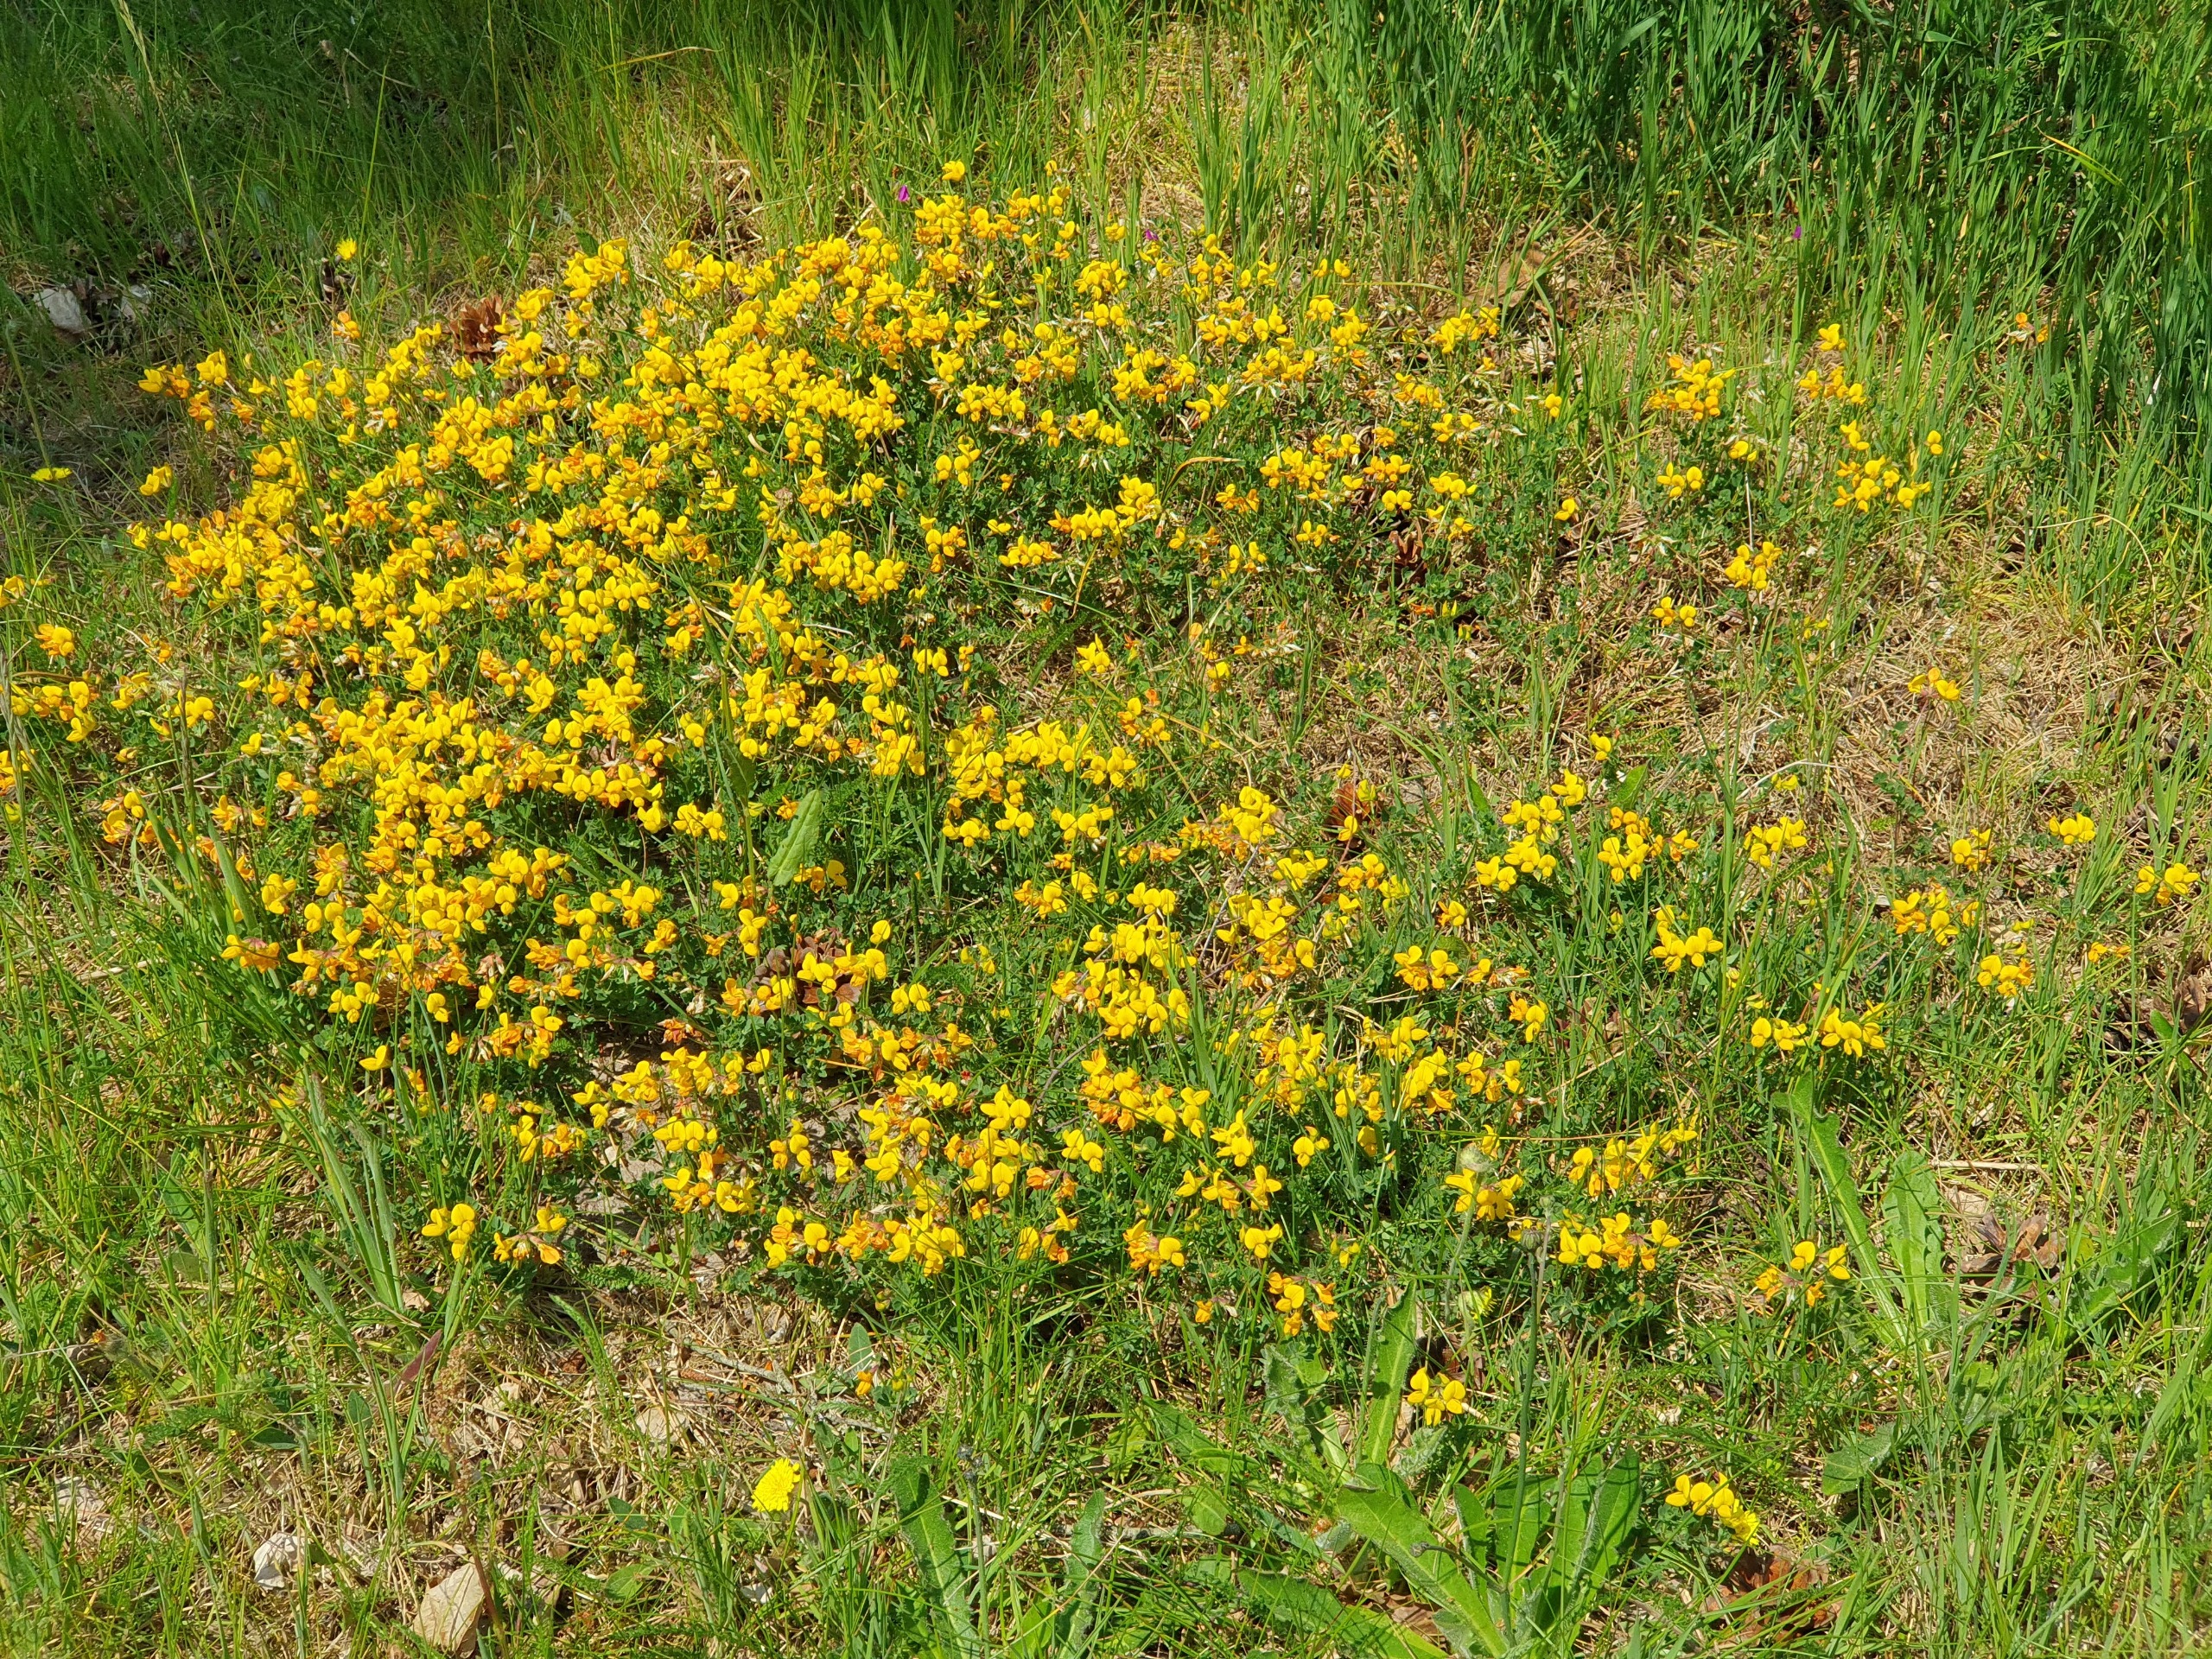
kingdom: Plantae
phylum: Tracheophyta
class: Magnoliopsida
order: Fabales
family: Fabaceae
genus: Lotus
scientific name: Lotus corniculatus
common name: Almindelig kællingetand
